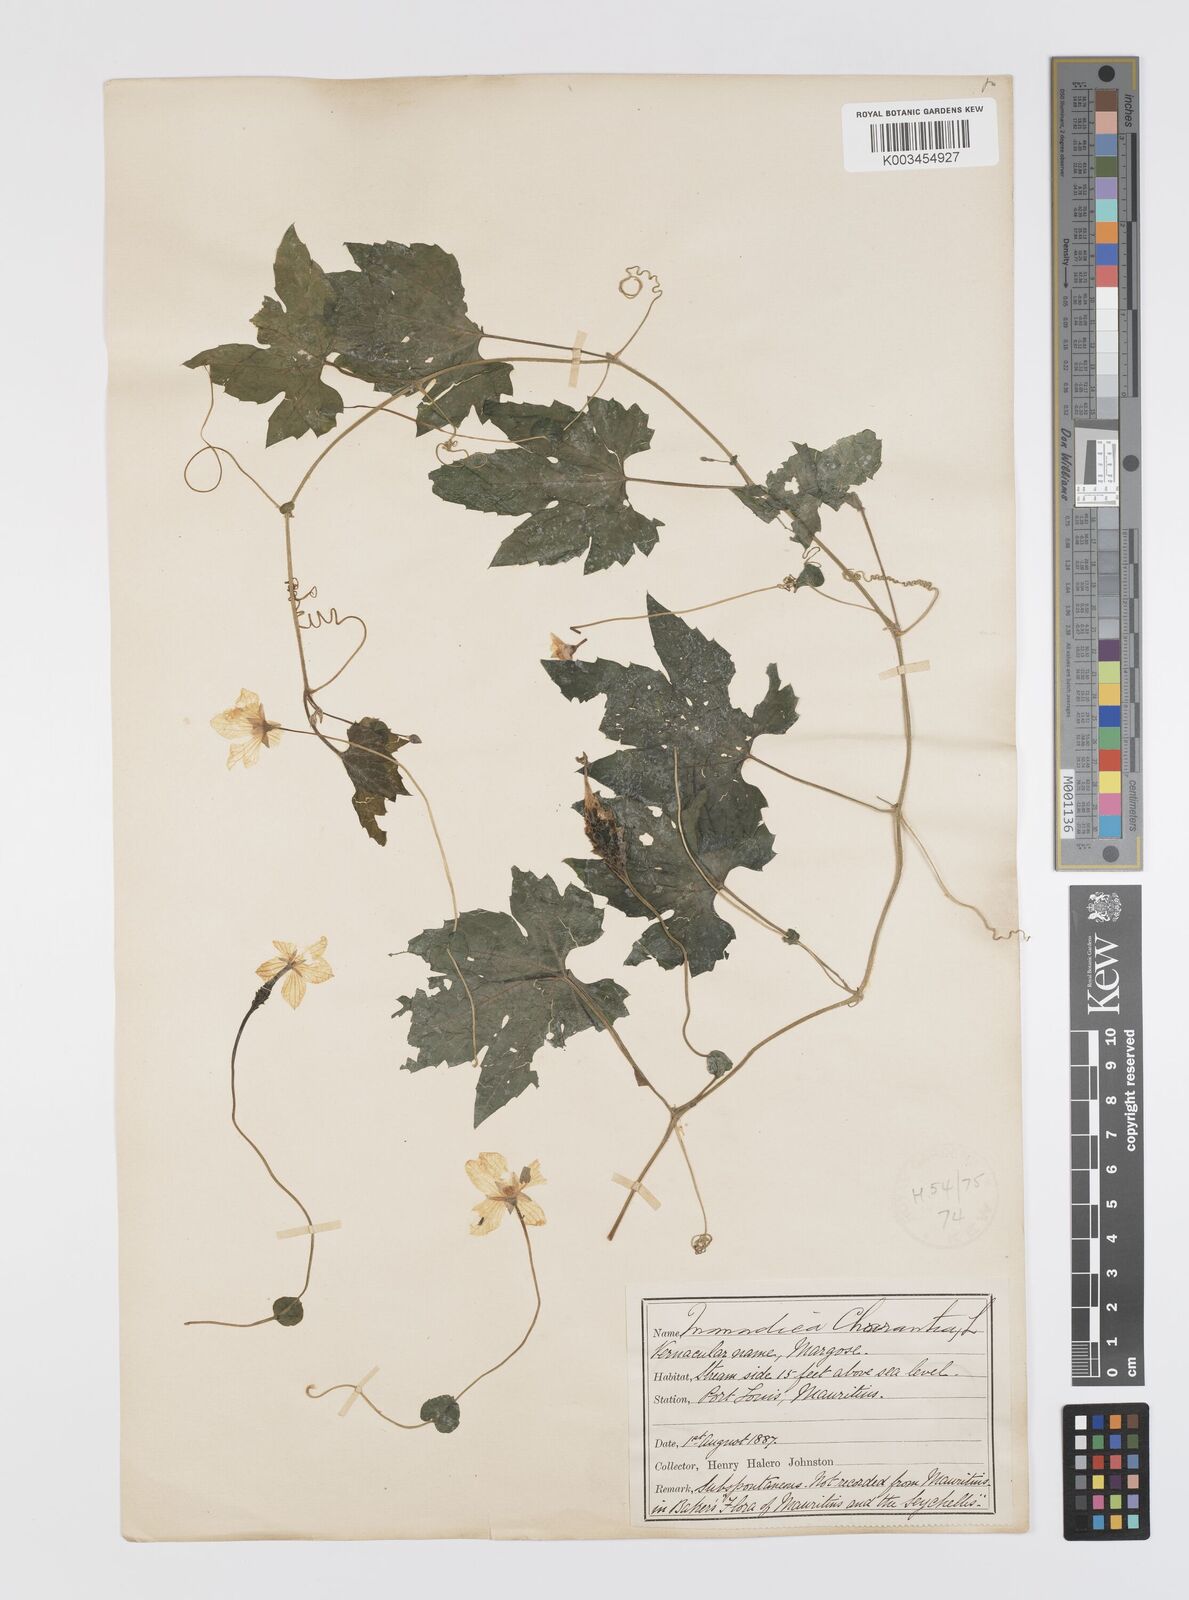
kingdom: Plantae
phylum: Tracheophyta
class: Magnoliopsida
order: Cucurbitales
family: Cucurbitaceae
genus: Momordica
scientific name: Momordica charantia
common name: Balsampear
